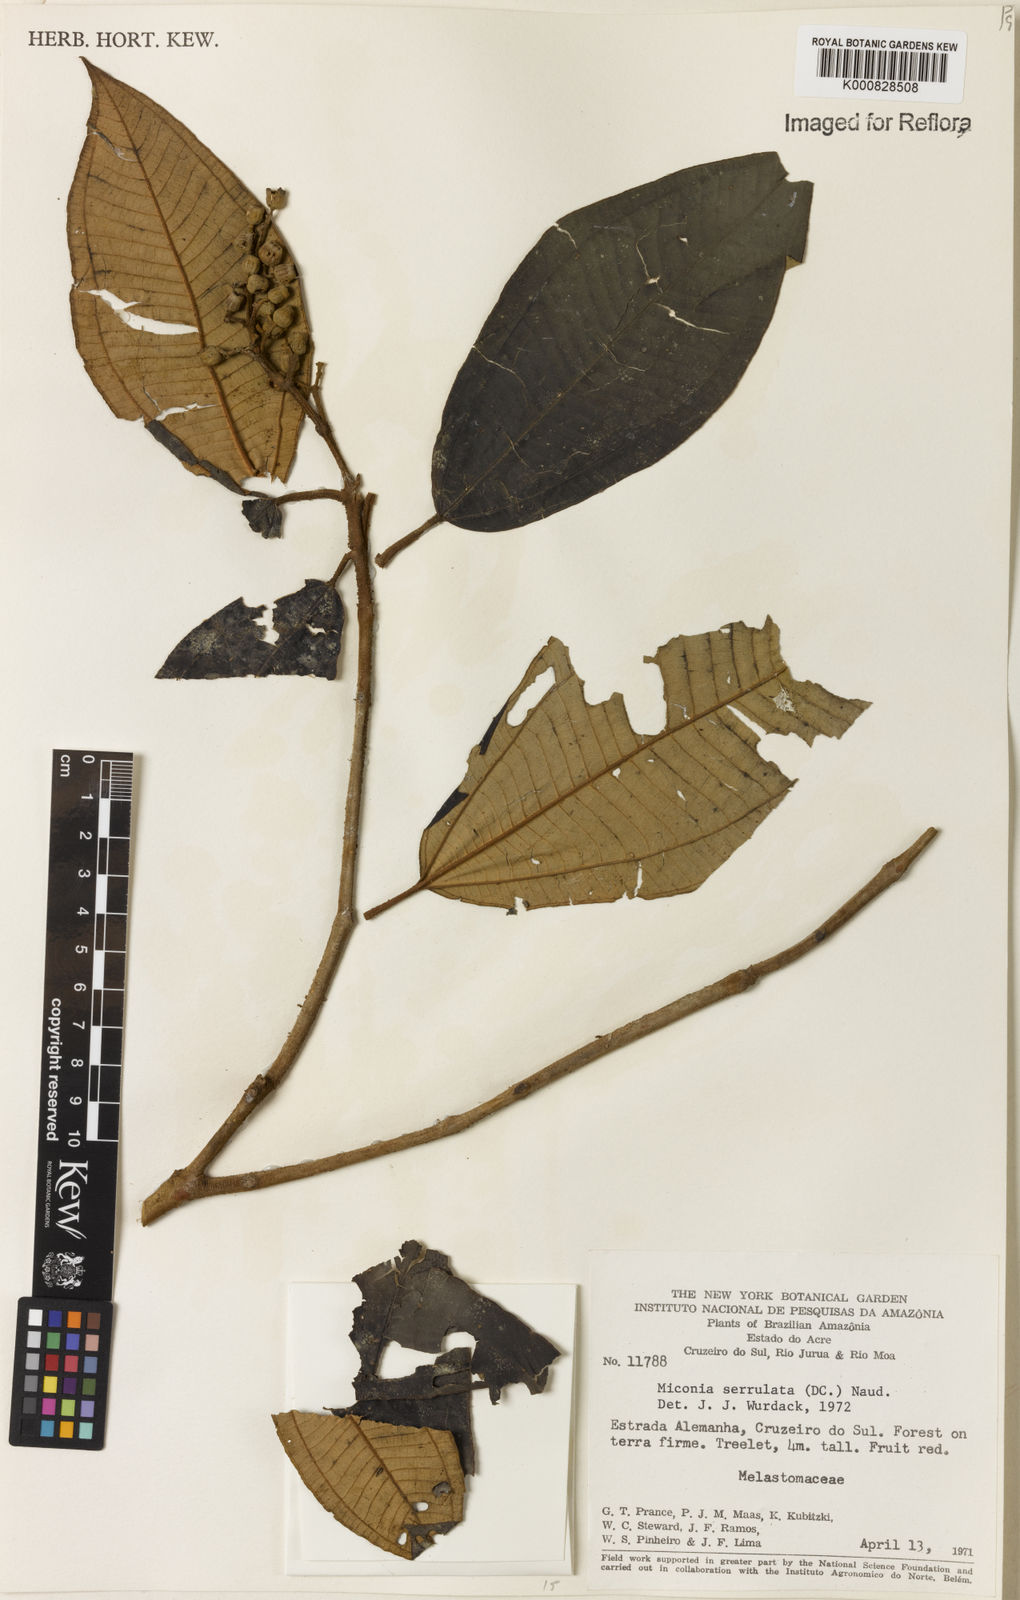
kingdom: Plantae
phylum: Tracheophyta
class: Magnoliopsida
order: Myrtales
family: Melastomataceae
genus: Miconia
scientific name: Miconia serrulata
